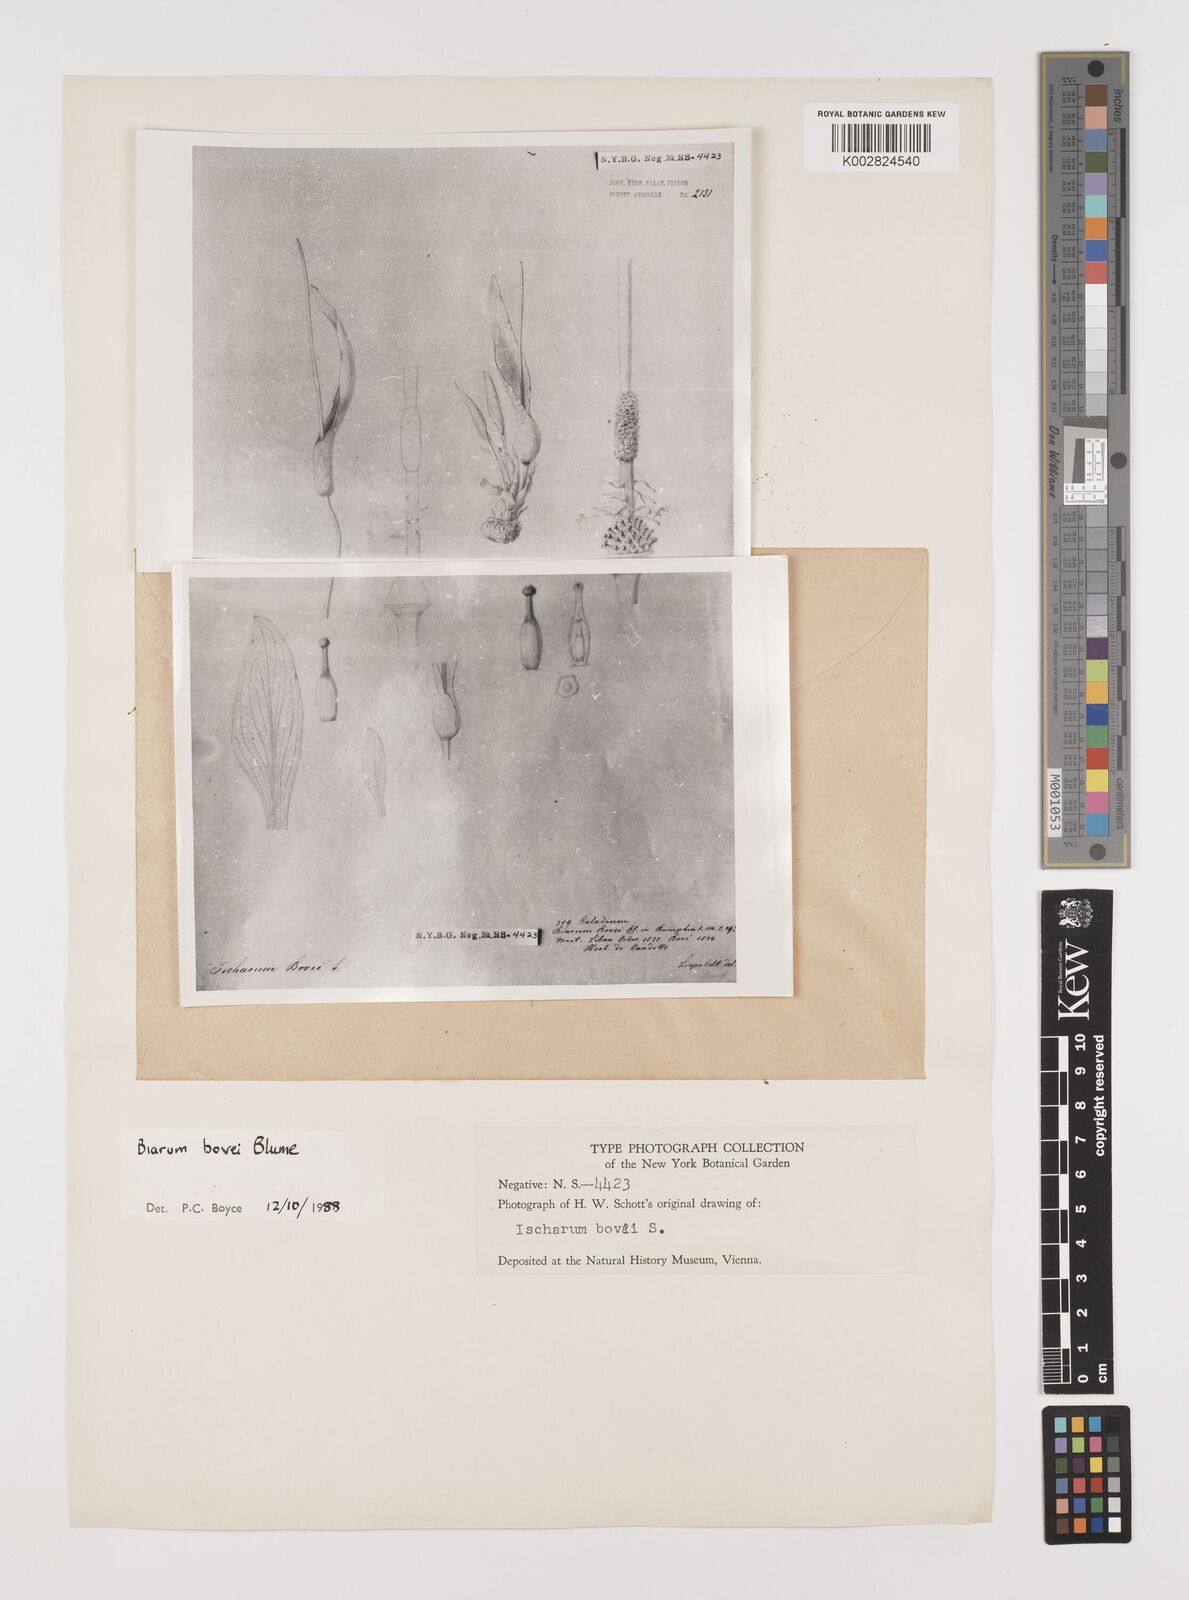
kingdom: Plantae
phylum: Tracheophyta
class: Liliopsida
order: Alismatales
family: Araceae
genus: Biarum
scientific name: Biarum bovei
